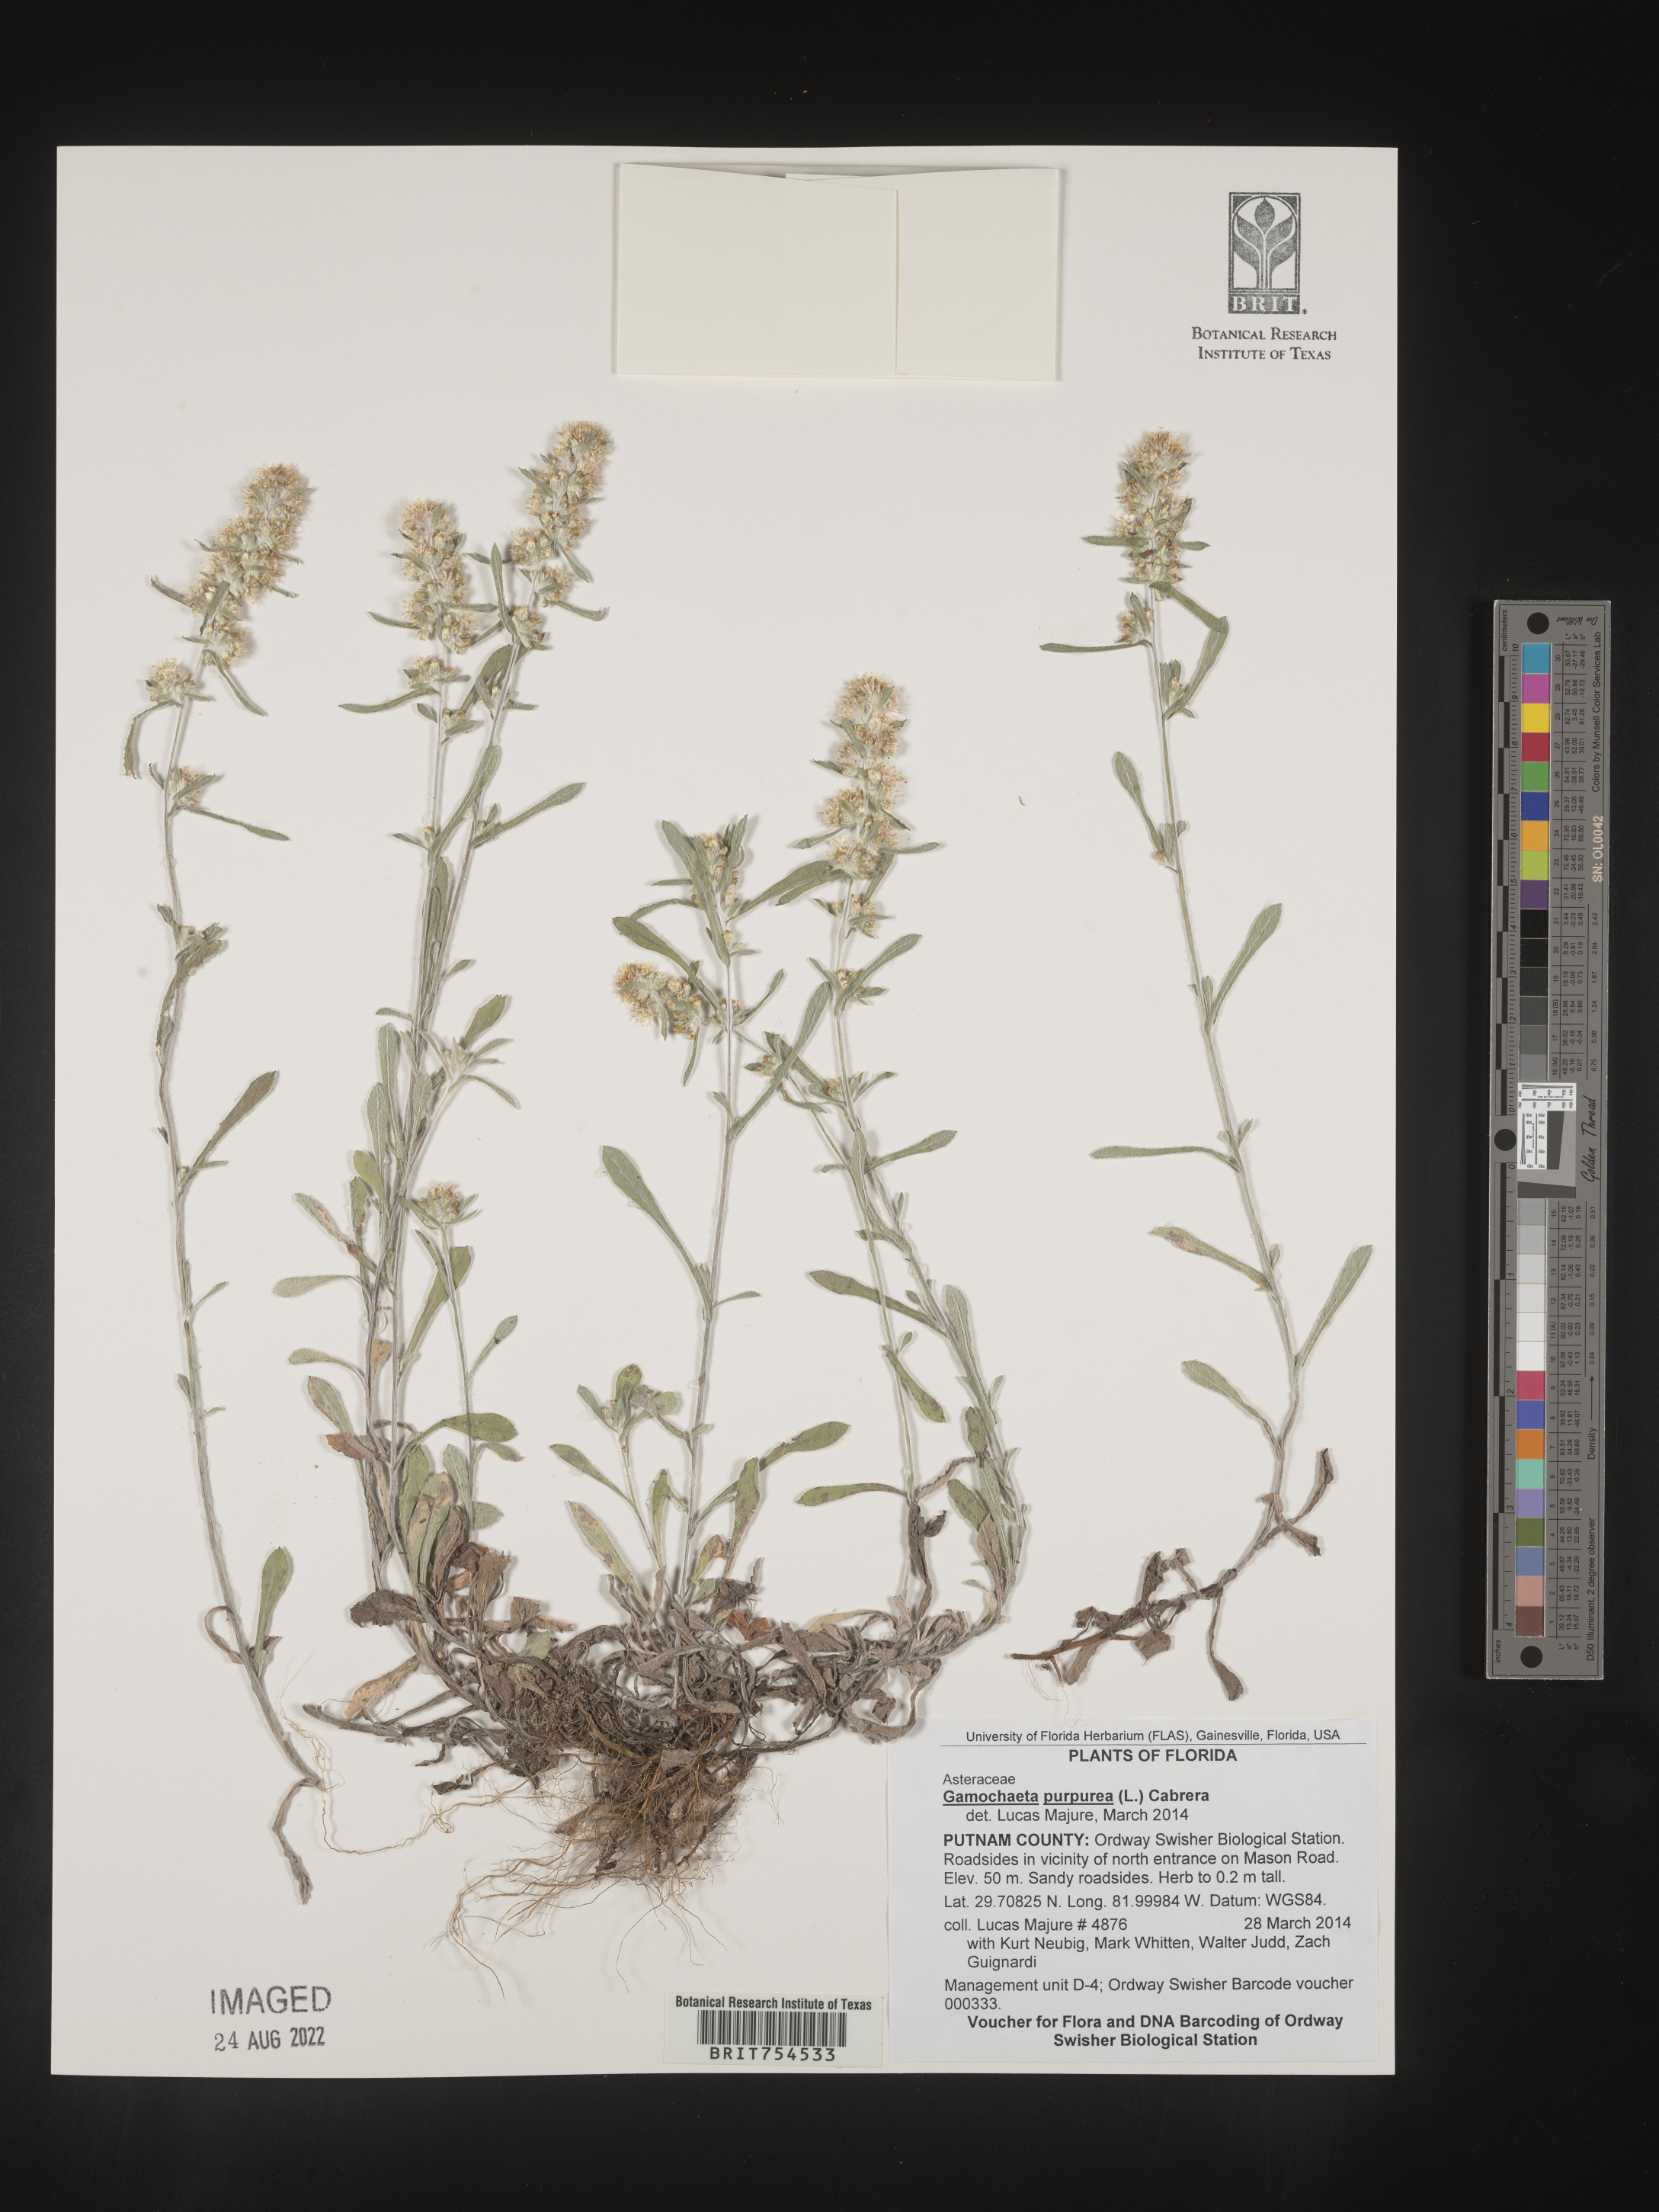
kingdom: Plantae
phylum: Tracheophyta
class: Magnoliopsida
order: Asterales
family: Asteraceae
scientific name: Asteraceae
